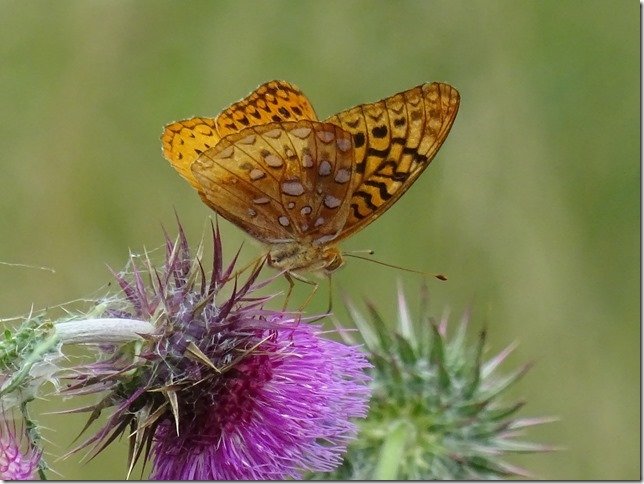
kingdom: Animalia
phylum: Arthropoda
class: Insecta
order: Lepidoptera
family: Nymphalidae
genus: Speyeria
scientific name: Speyeria cybele
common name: Great Spangled Fritillary
